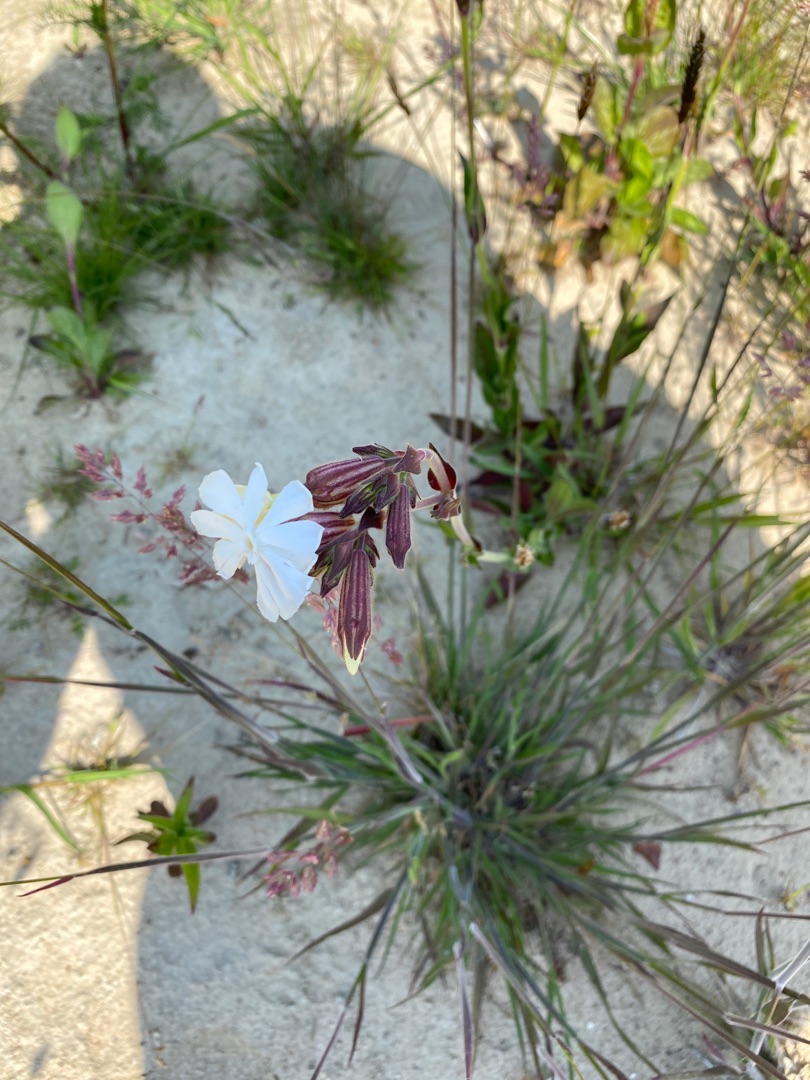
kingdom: Plantae
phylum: Tracheophyta
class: Magnoliopsida
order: Caryophyllales
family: Caryophyllaceae
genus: Silene
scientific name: Silene latifolia
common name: Aftenpragtstjerne
